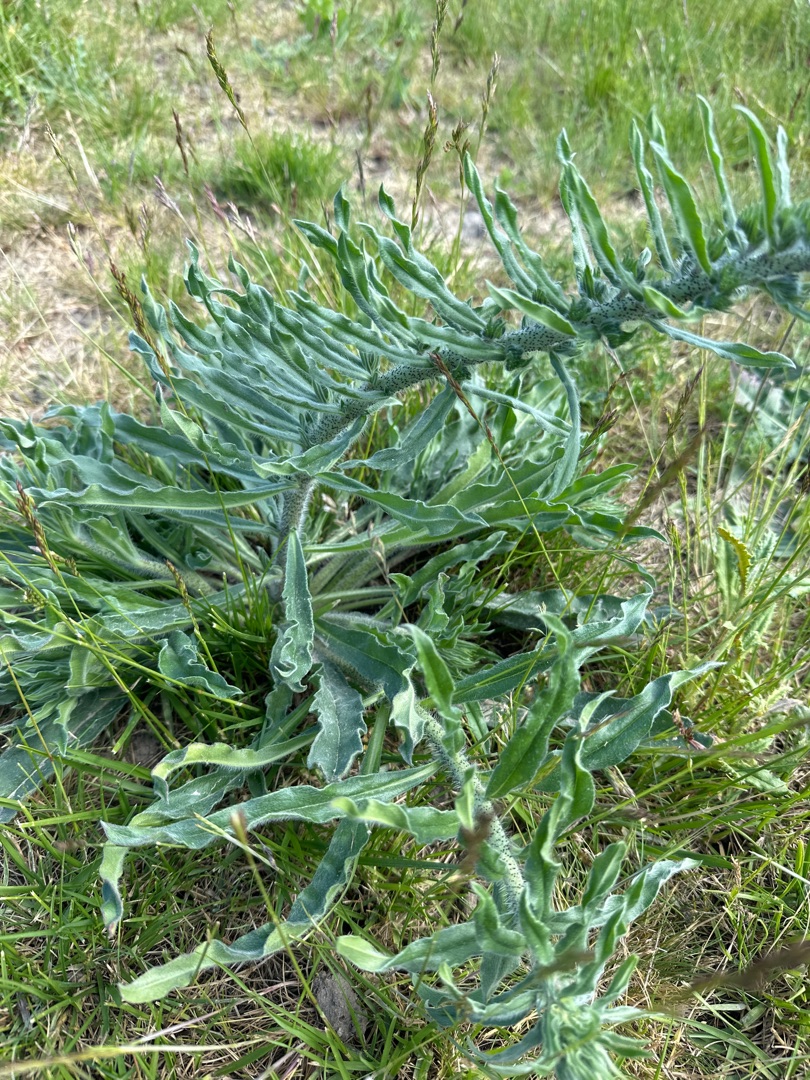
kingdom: Plantae
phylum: Tracheophyta
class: Magnoliopsida
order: Boraginales
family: Boraginaceae
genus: Echium
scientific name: Echium vulgare
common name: Slangehoved
